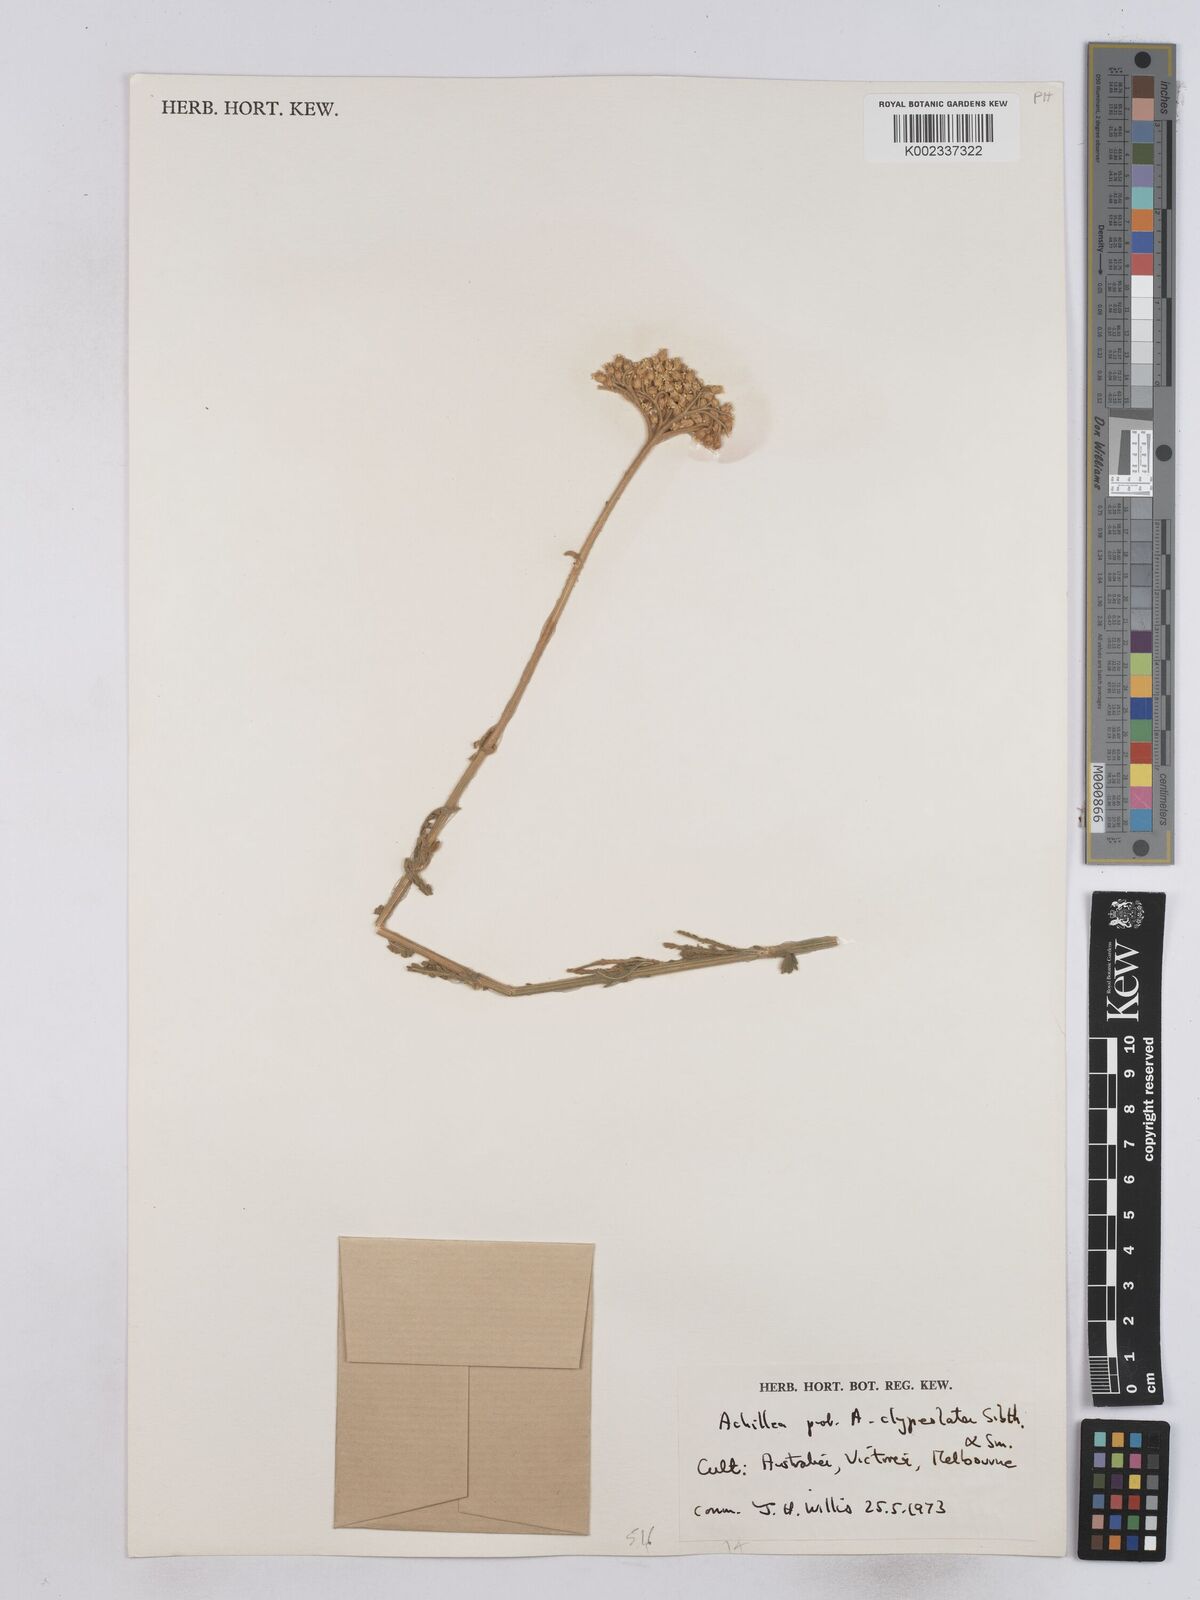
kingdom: Plantae
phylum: Tracheophyta
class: Magnoliopsida
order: Asterales
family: Asteraceae
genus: Achillea
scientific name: Achillea clypeolata
